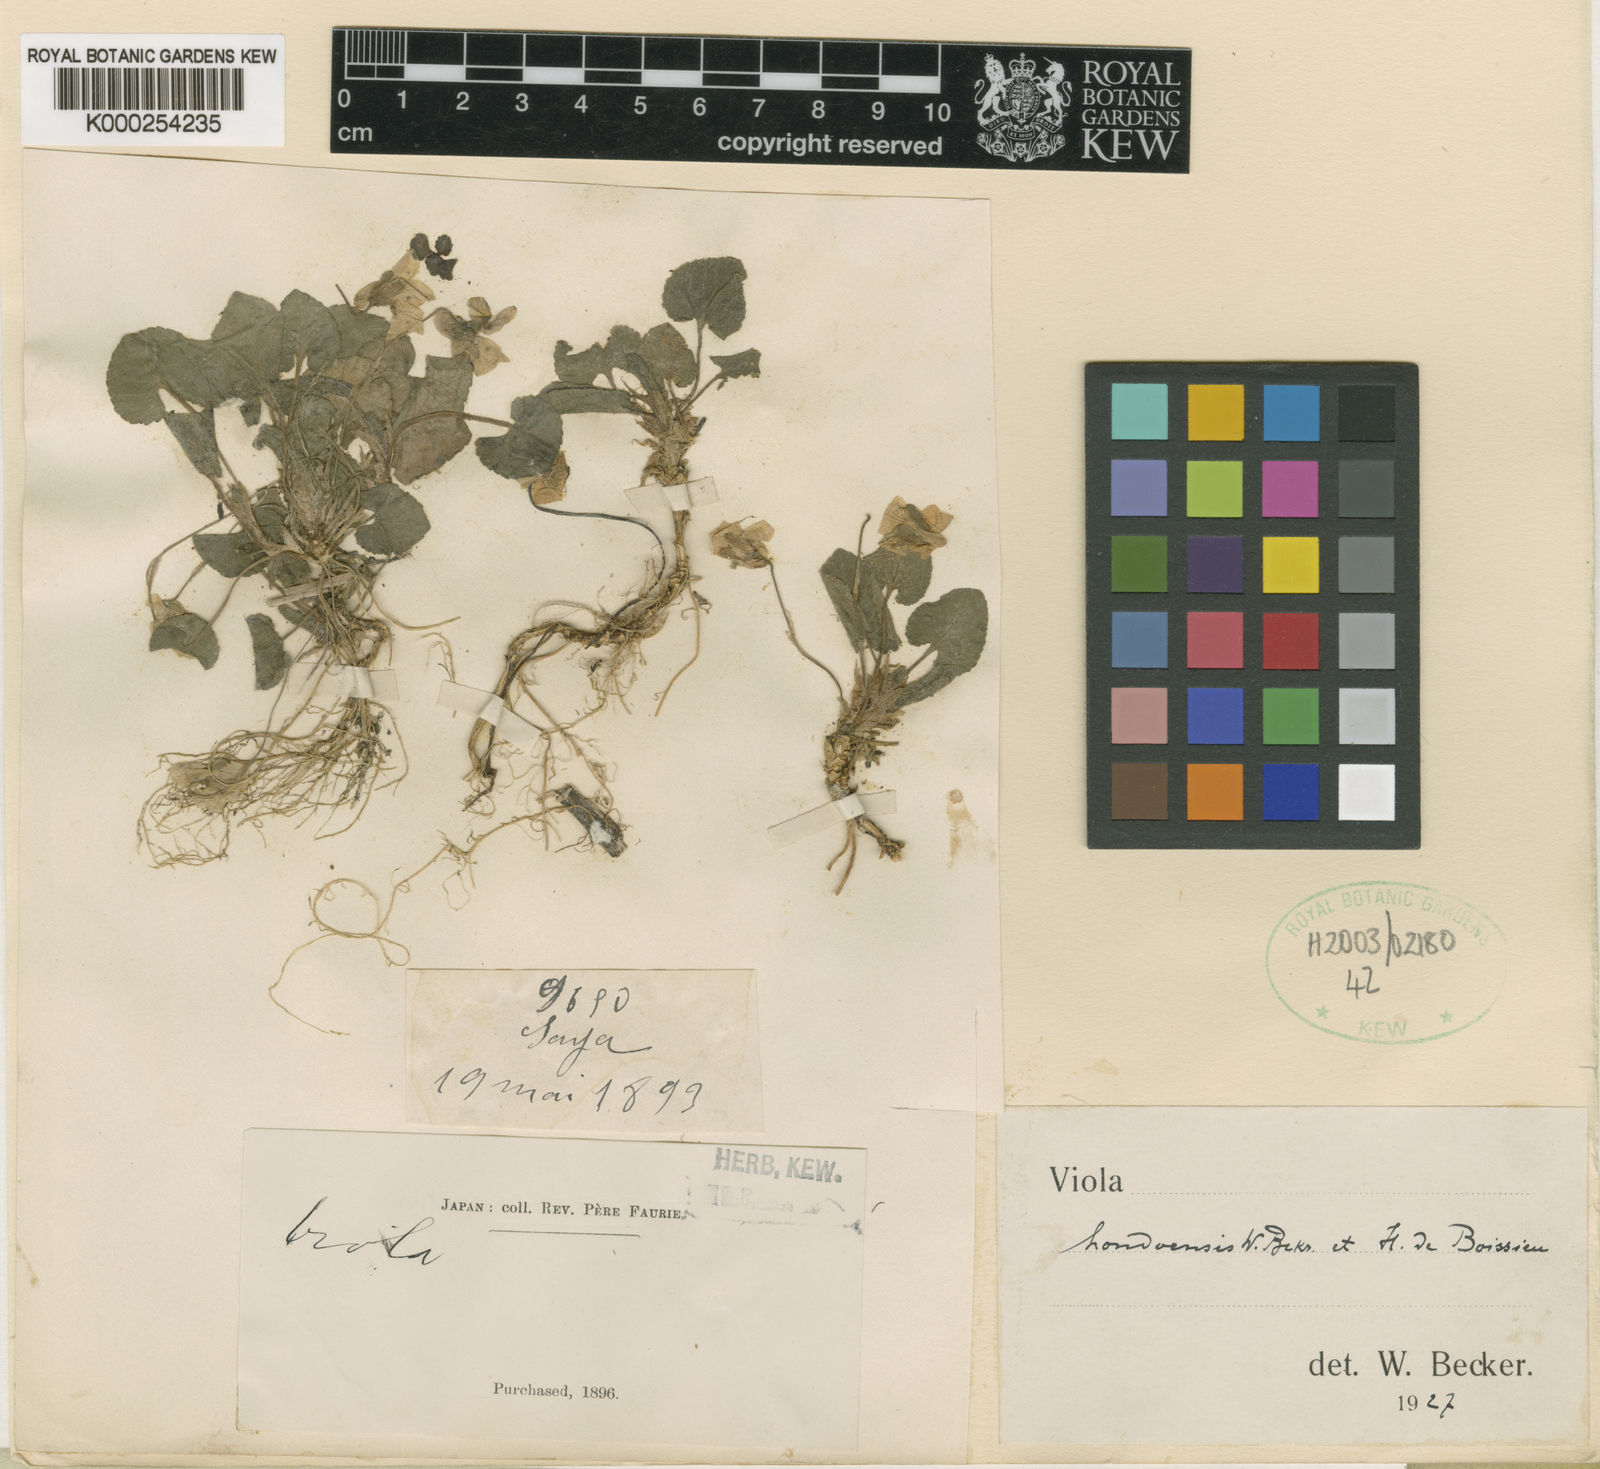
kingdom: Plantae
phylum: Tracheophyta
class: Magnoliopsida
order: Malpighiales
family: Violaceae
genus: Viola
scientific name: Viola hondoensis
